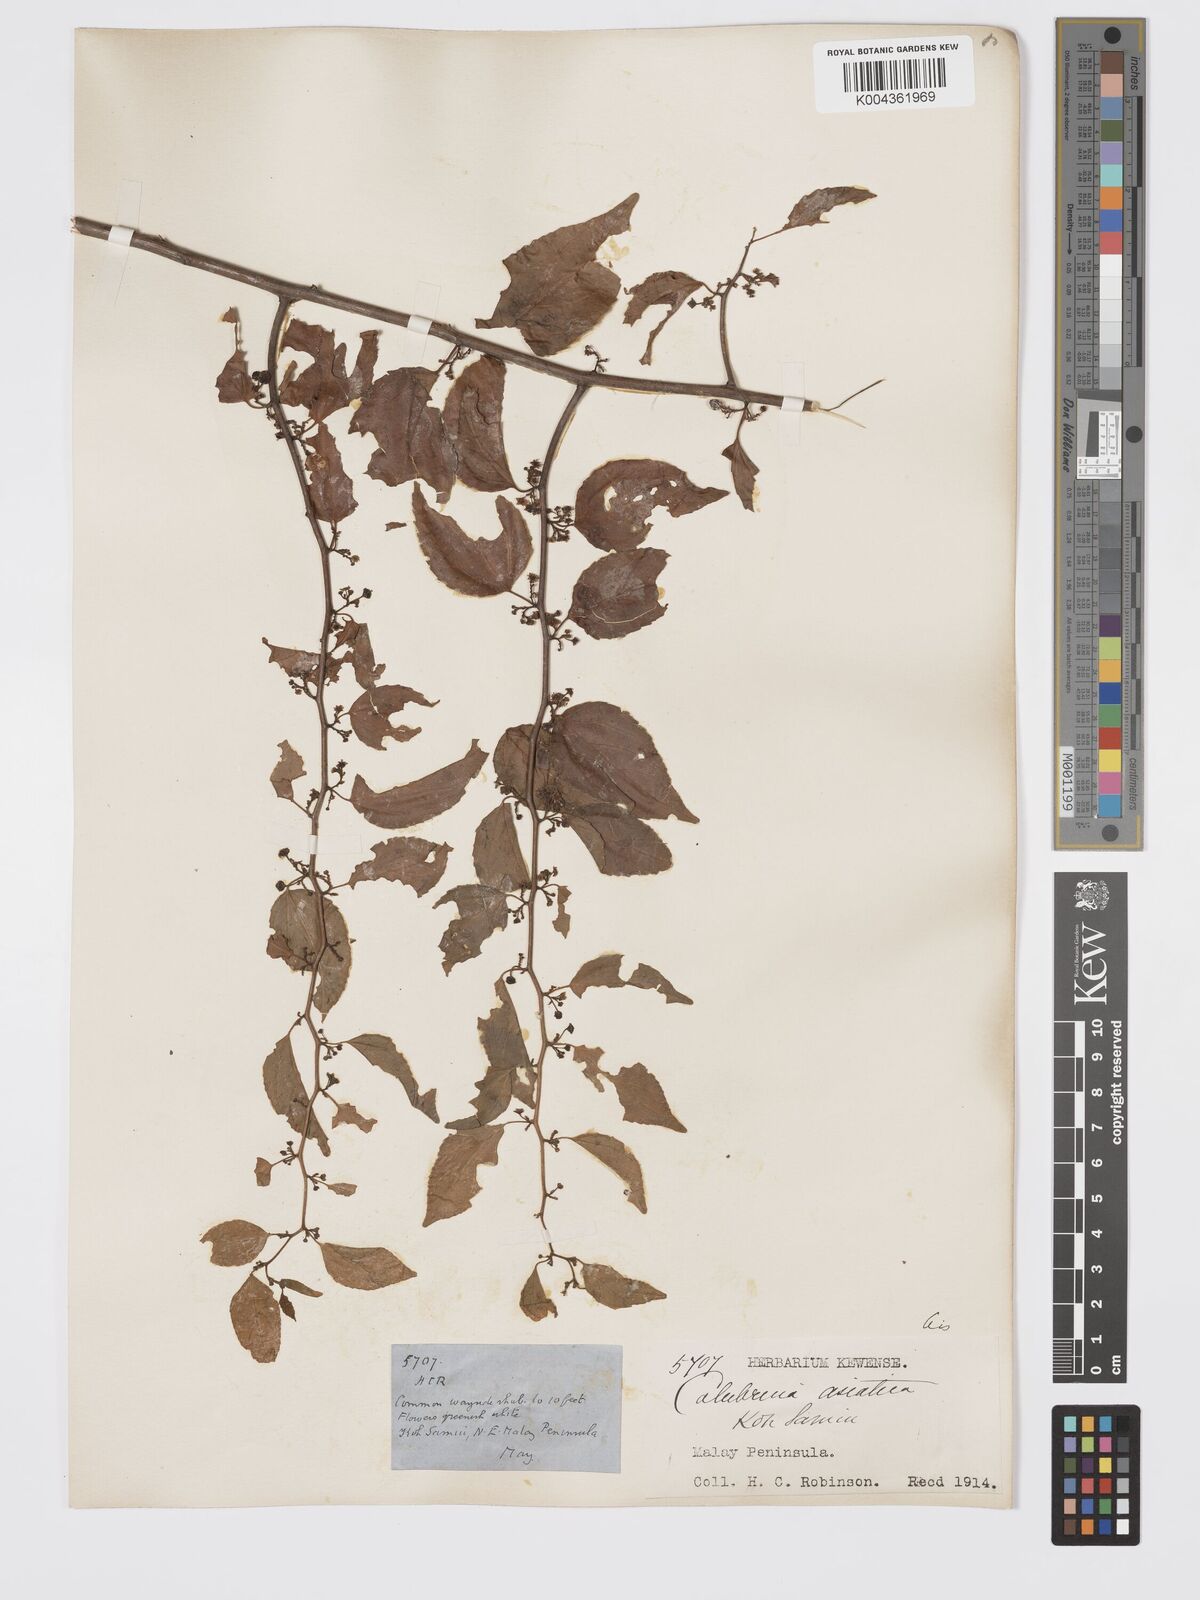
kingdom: Plantae
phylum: Tracheophyta
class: Magnoliopsida
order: Rosales
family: Rhamnaceae
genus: Colubrina
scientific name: Colubrina asiatica
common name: Asian nakedwood
